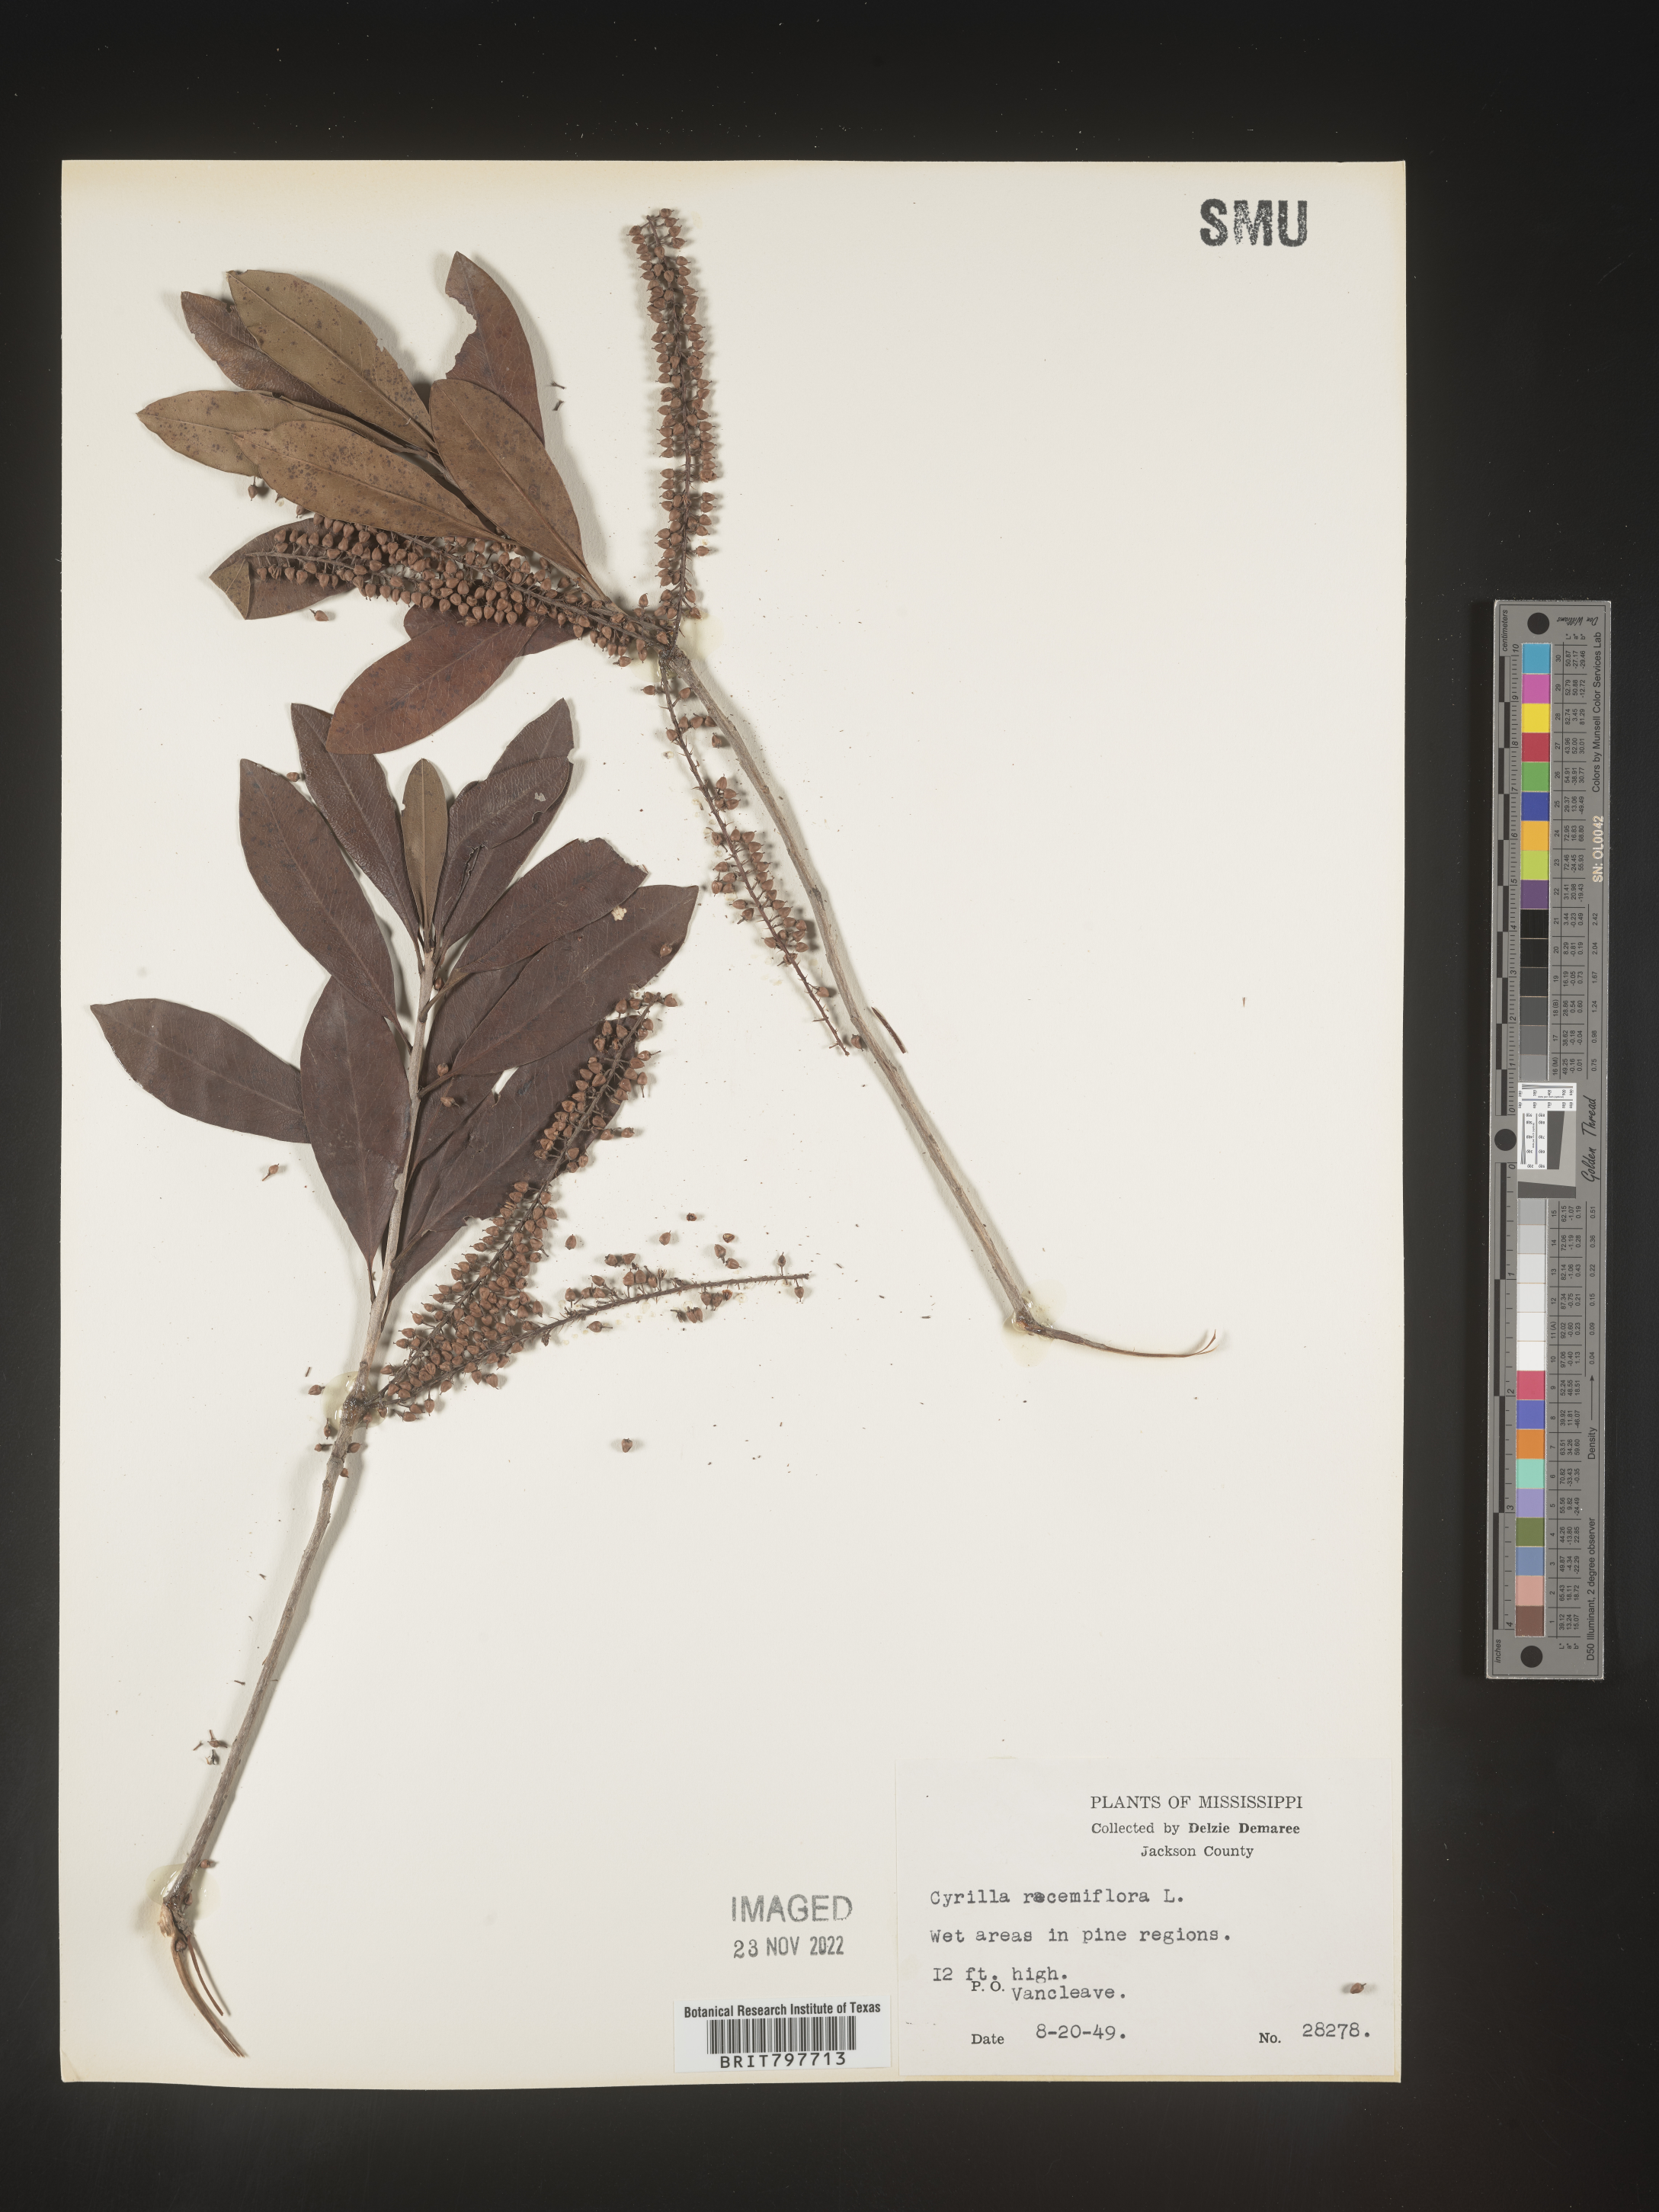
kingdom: Plantae
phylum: Tracheophyta
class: Magnoliopsida
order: Ericales
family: Cyrillaceae
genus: Cyrilla
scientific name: Cyrilla racemiflora
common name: Black titi
